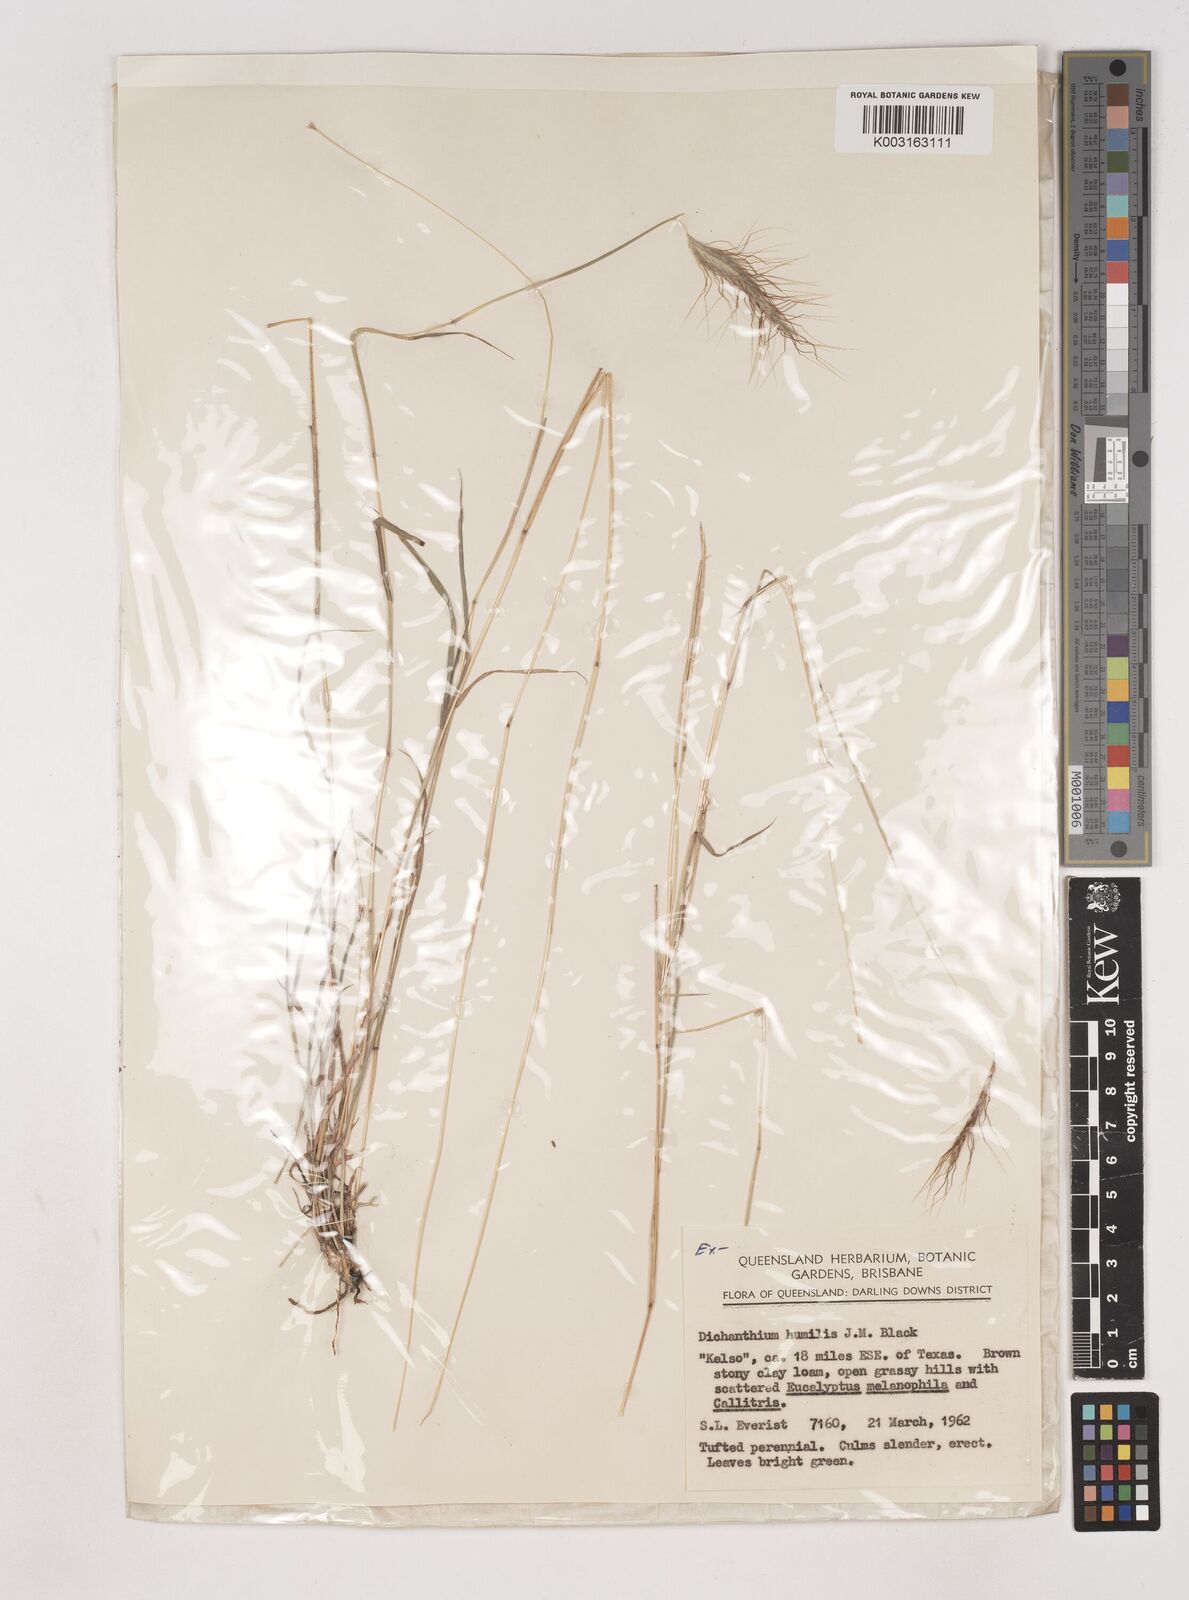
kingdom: Plantae
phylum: Tracheophyta
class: Liliopsida
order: Poales
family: Poaceae
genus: Dichanthium
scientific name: Dichanthium sericeum
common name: Silky bluestem
